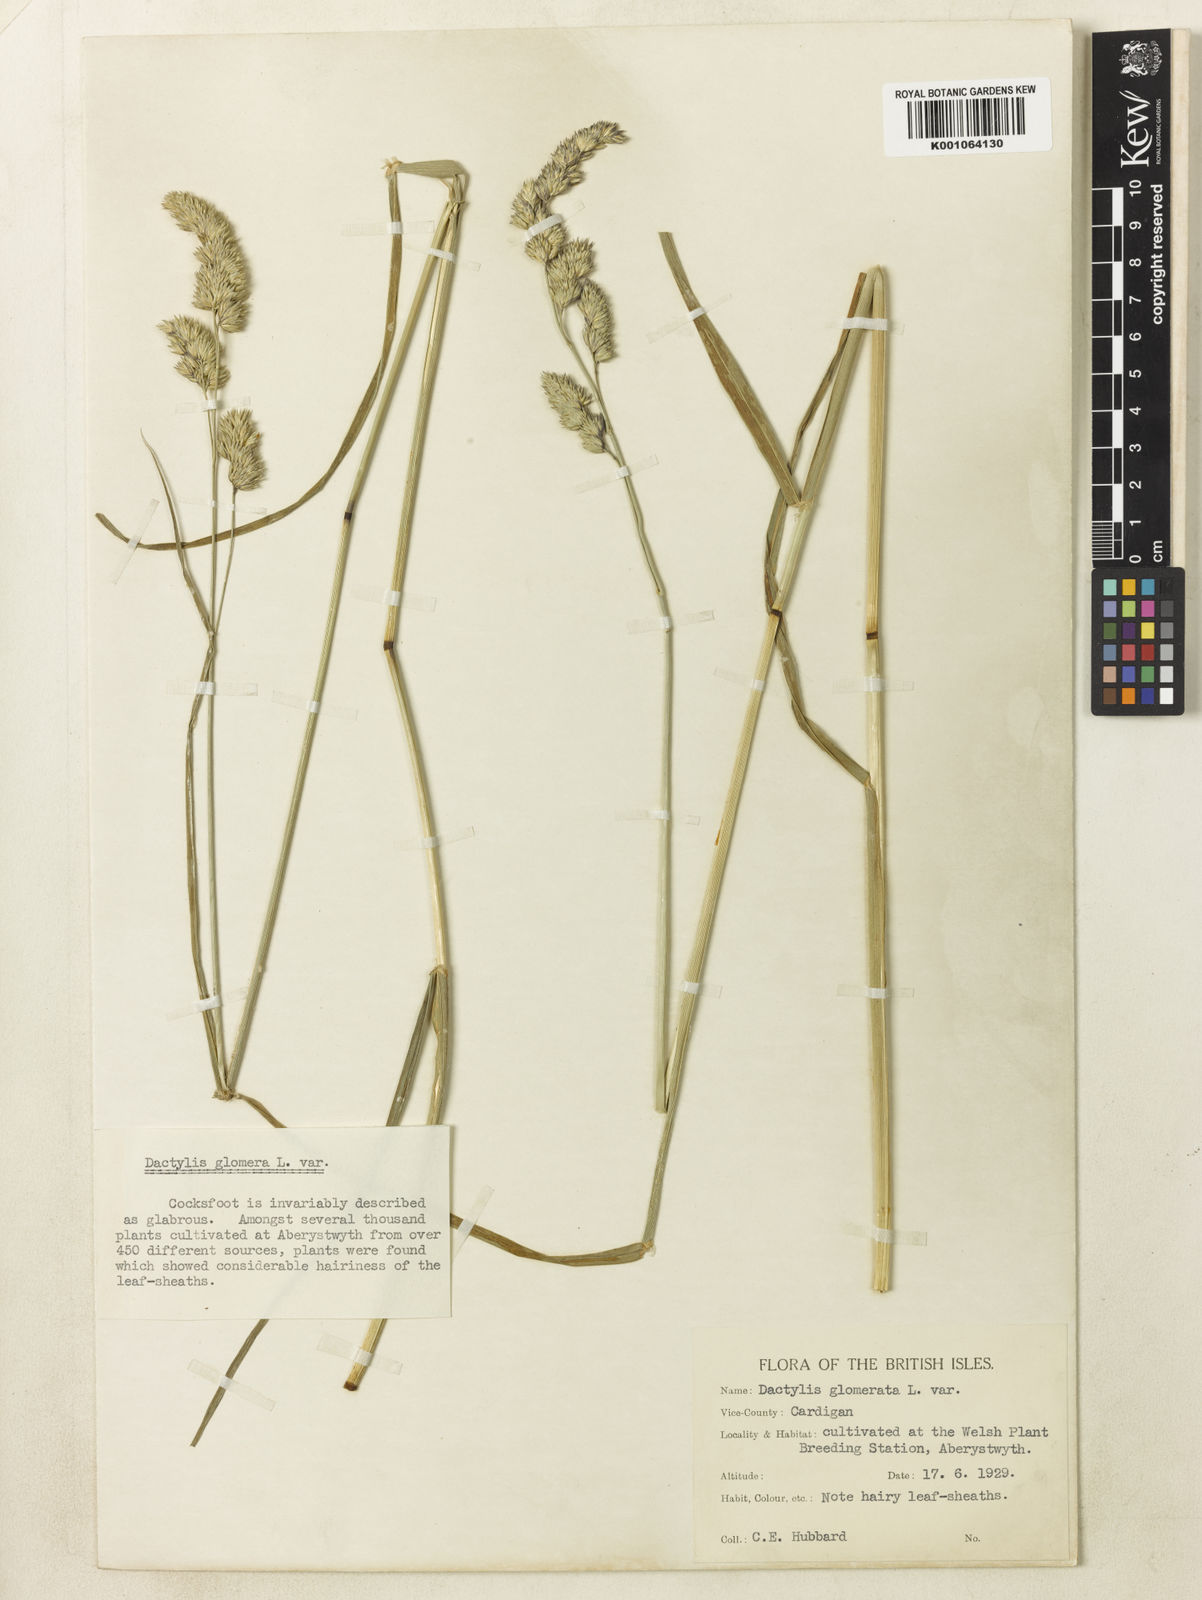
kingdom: Plantae
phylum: Tracheophyta
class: Liliopsida
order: Poales
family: Poaceae
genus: Dactylis
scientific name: Dactylis glomerata
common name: Orchardgrass
